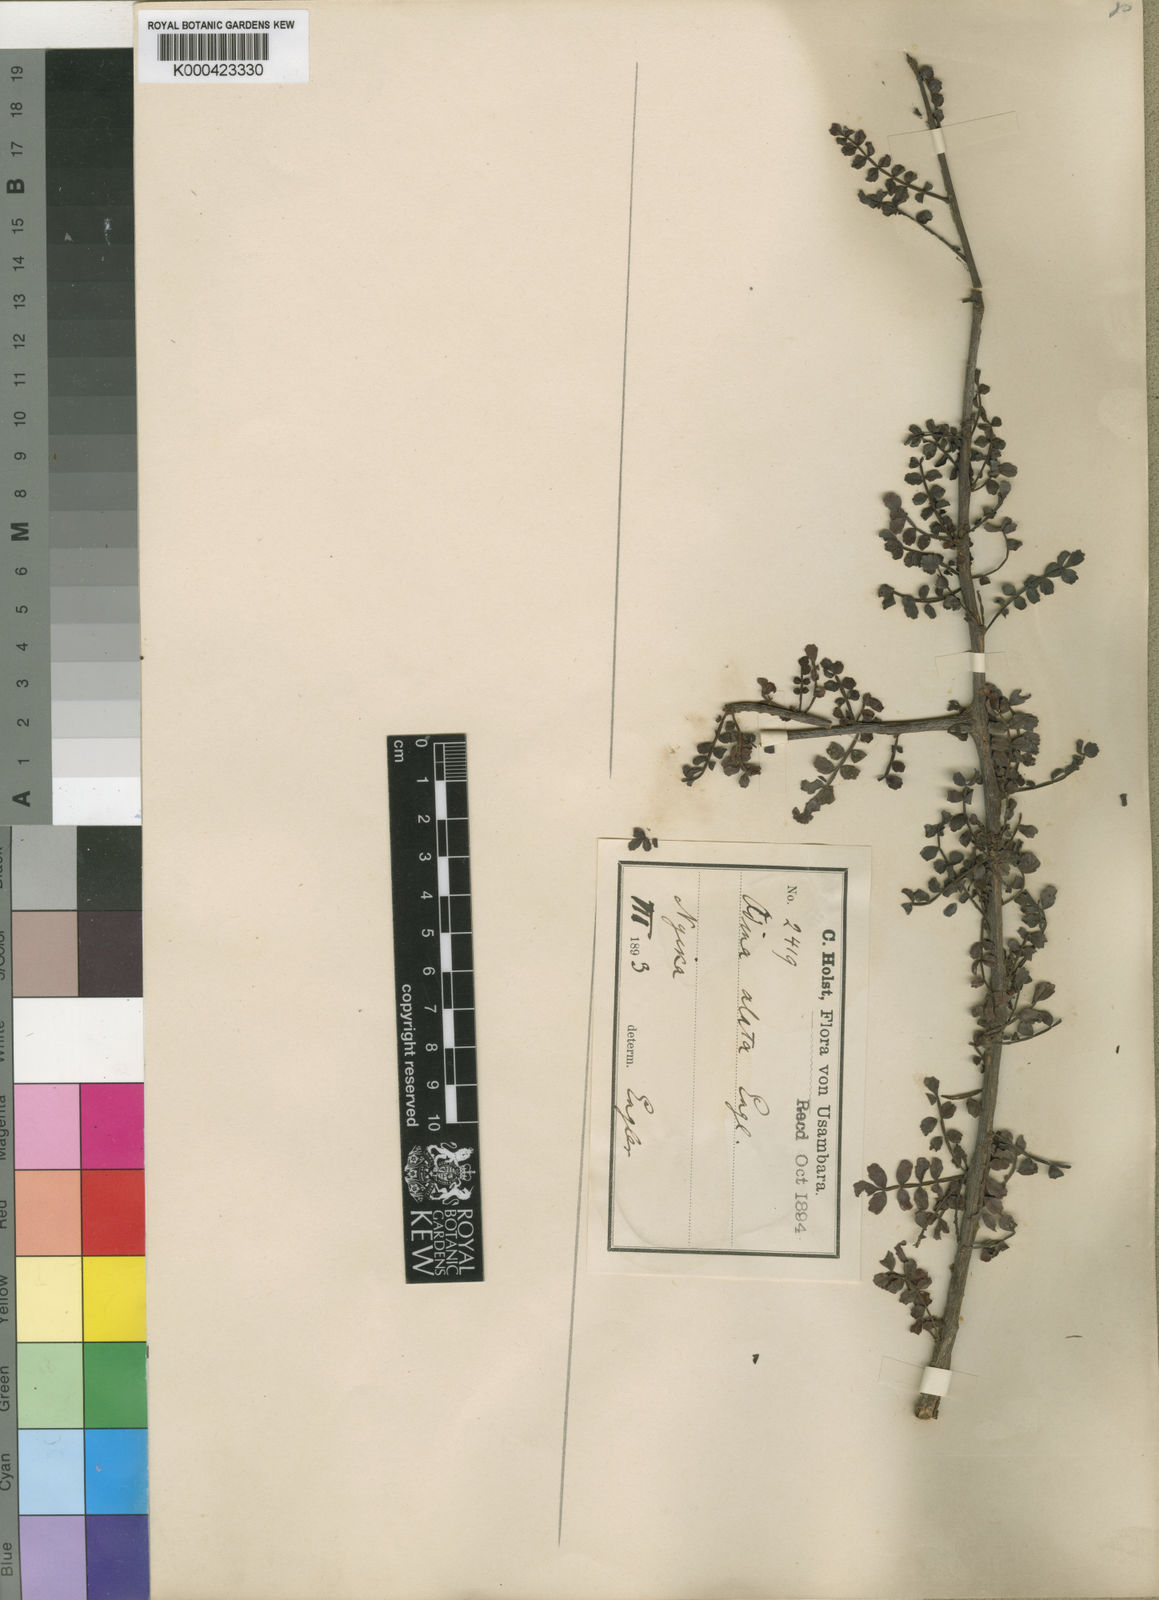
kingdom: Plantae
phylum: Tracheophyta
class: Magnoliopsida
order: Sapindales
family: Anacardiaceae
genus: Lannea
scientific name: Lannea alata
